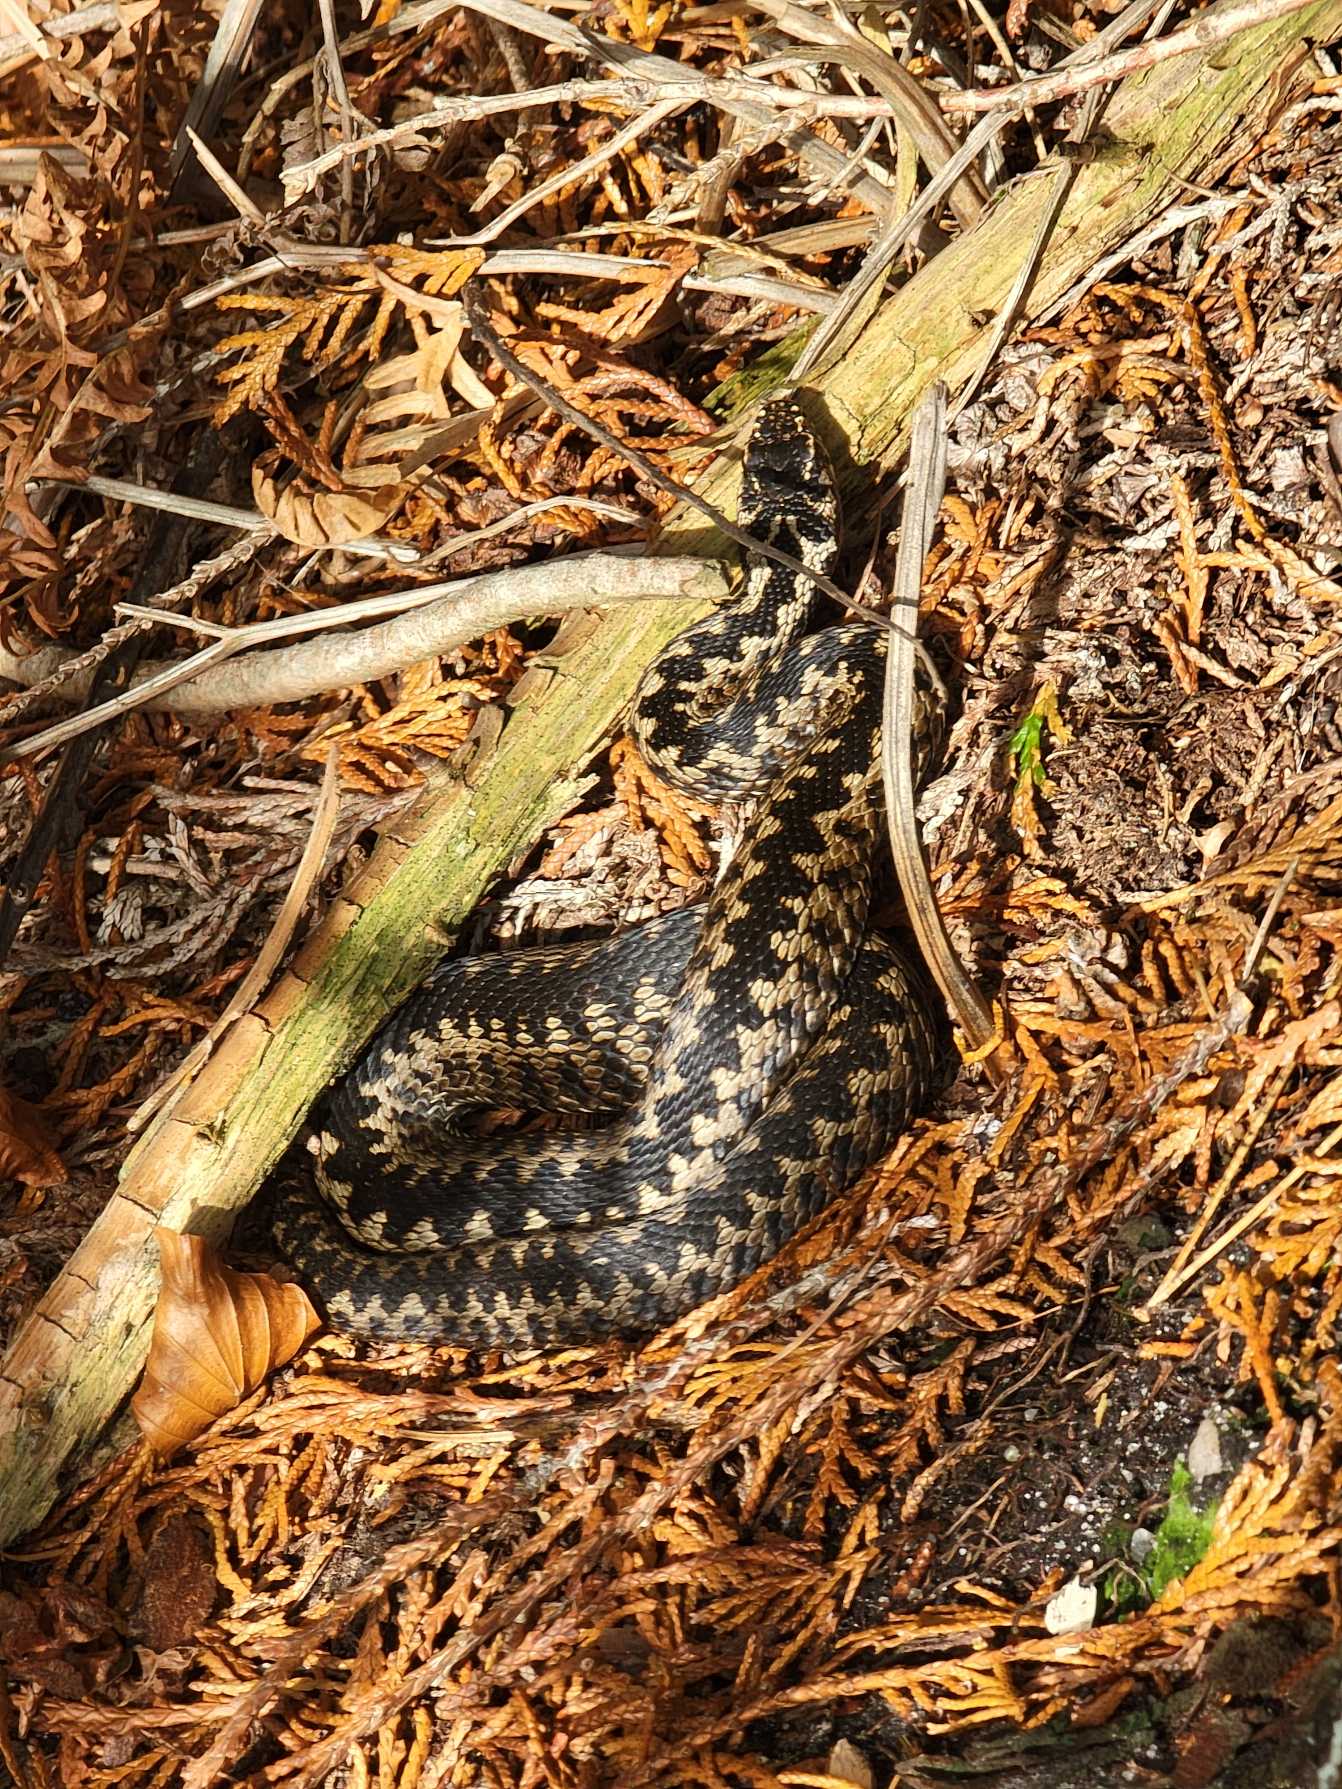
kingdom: Animalia
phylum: Chordata
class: Squamata
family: Viperidae
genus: Vipera
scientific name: Vipera berus
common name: Hugorm
